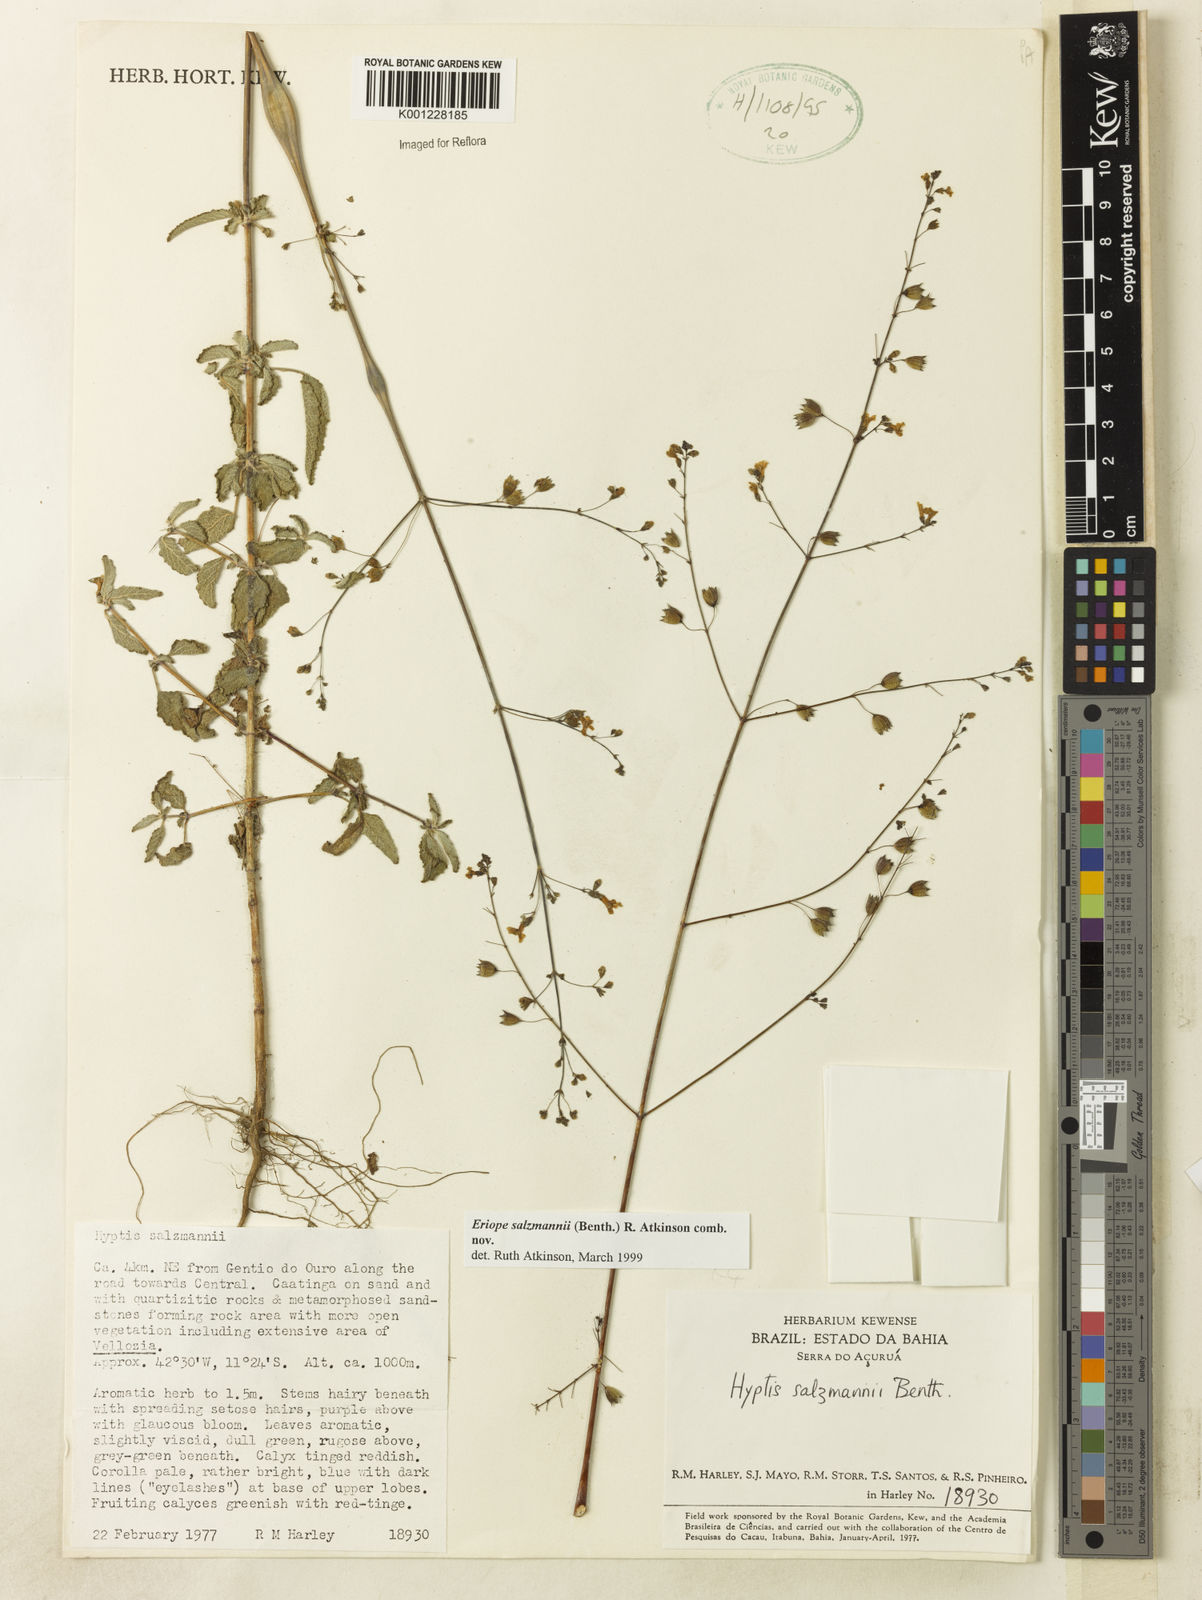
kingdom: Plantae
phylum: Tracheophyta
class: Magnoliopsida
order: Lamiales
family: Lamiaceae
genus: Hypenia
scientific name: Hypenia salzmannii
